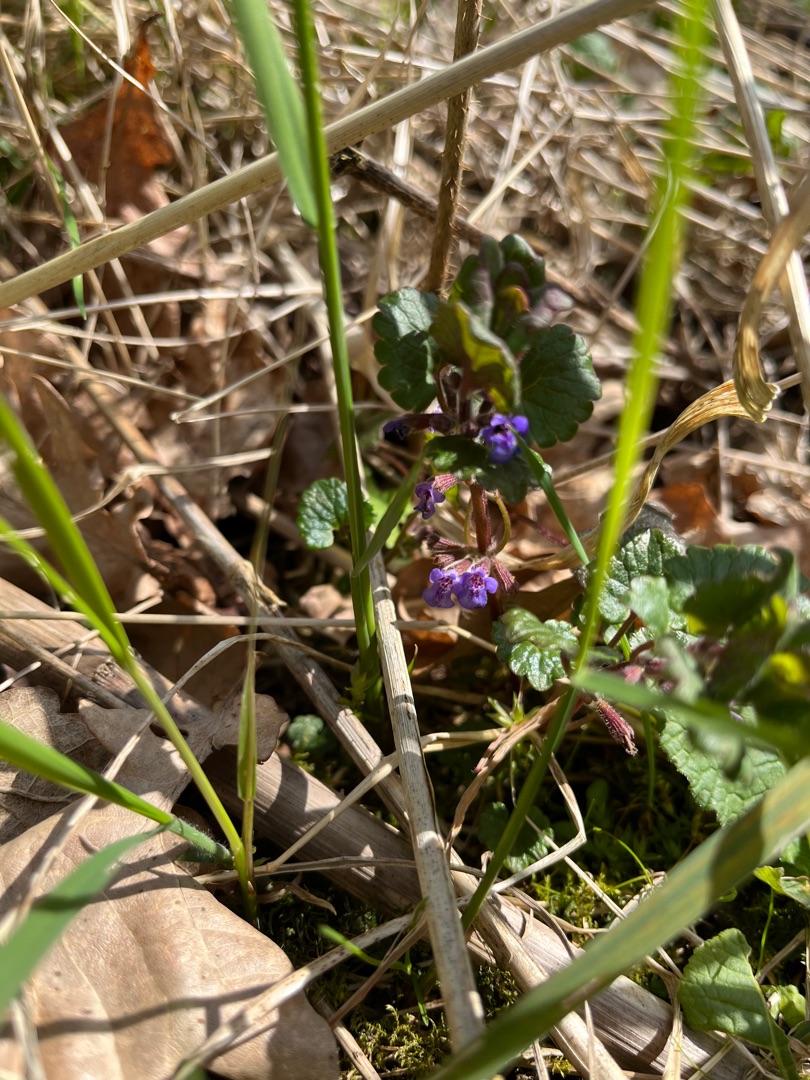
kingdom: Plantae
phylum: Tracheophyta
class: Magnoliopsida
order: Lamiales
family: Lamiaceae
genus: Glechoma
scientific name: Glechoma hederacea
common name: Korsknap
